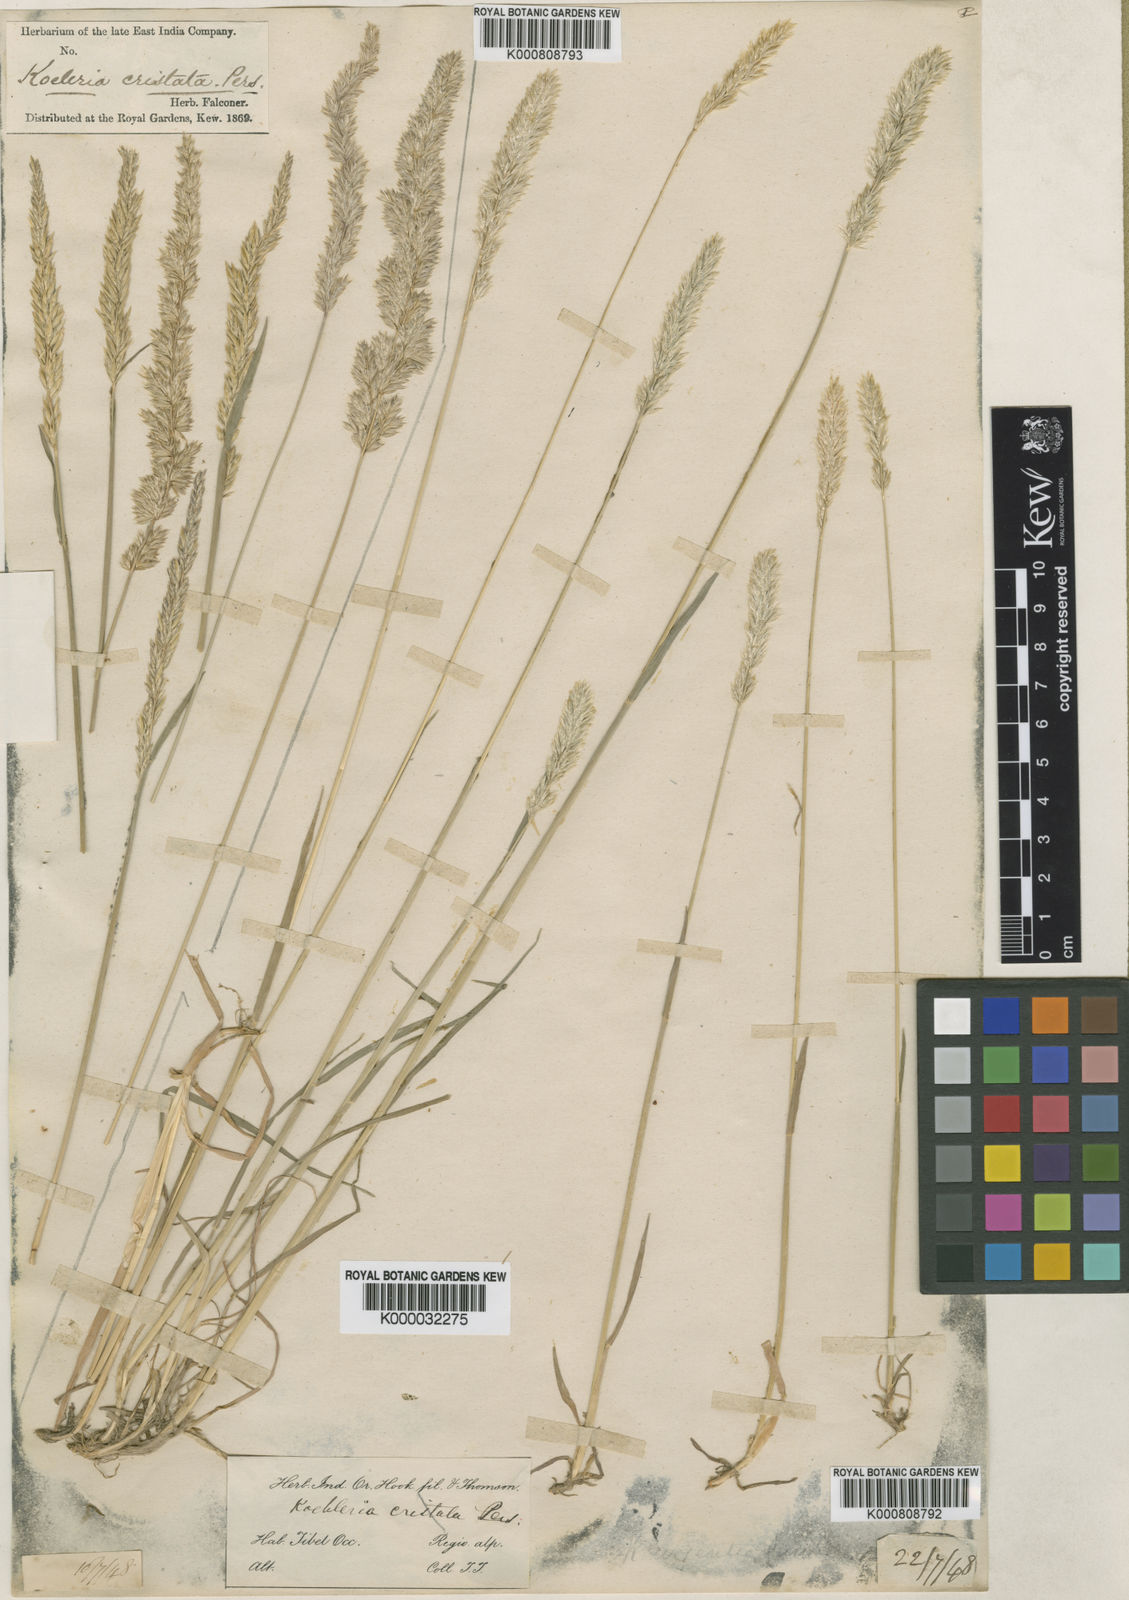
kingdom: Plantae
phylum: Tracheophyta
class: Liliopsida
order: Poales
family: Poaceae
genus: Koeleria
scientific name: Koeleria argentea
